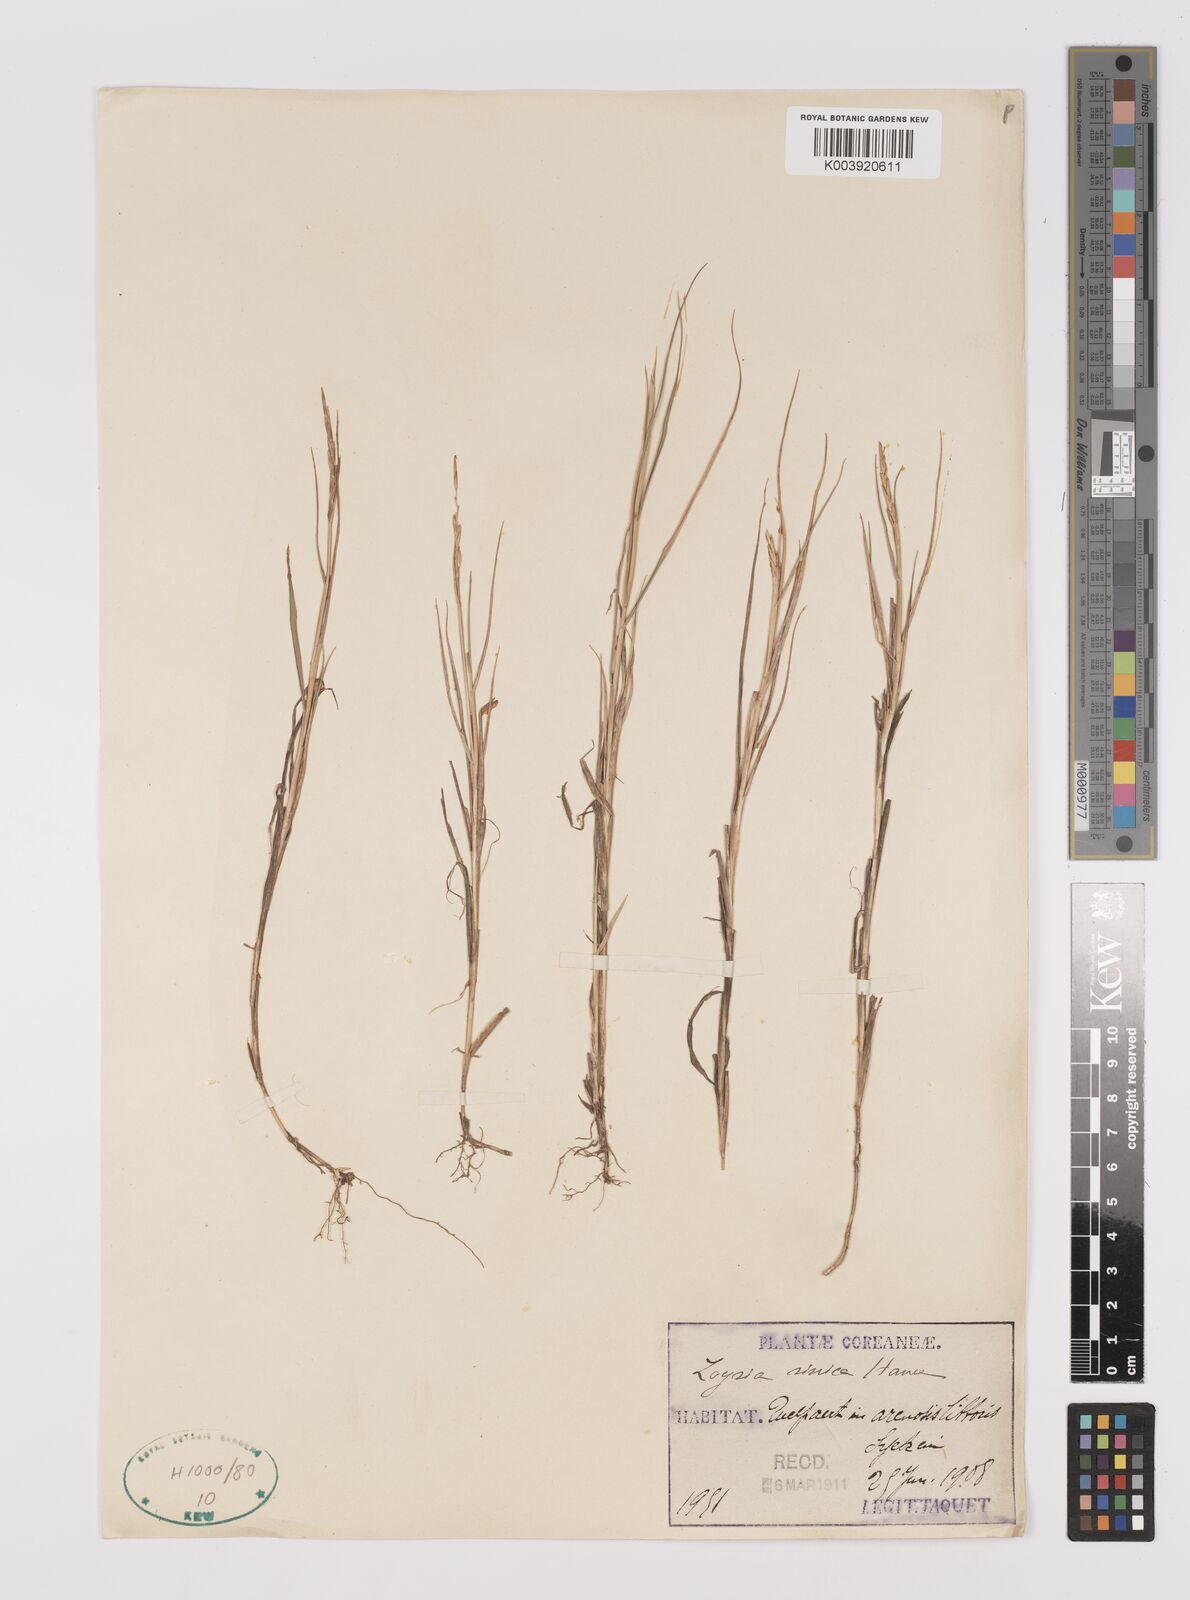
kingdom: Plantae
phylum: Tracheophyta
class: Liliopsida
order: Poales
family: Poaceae
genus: Zoysia
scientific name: Zoysia sinica
